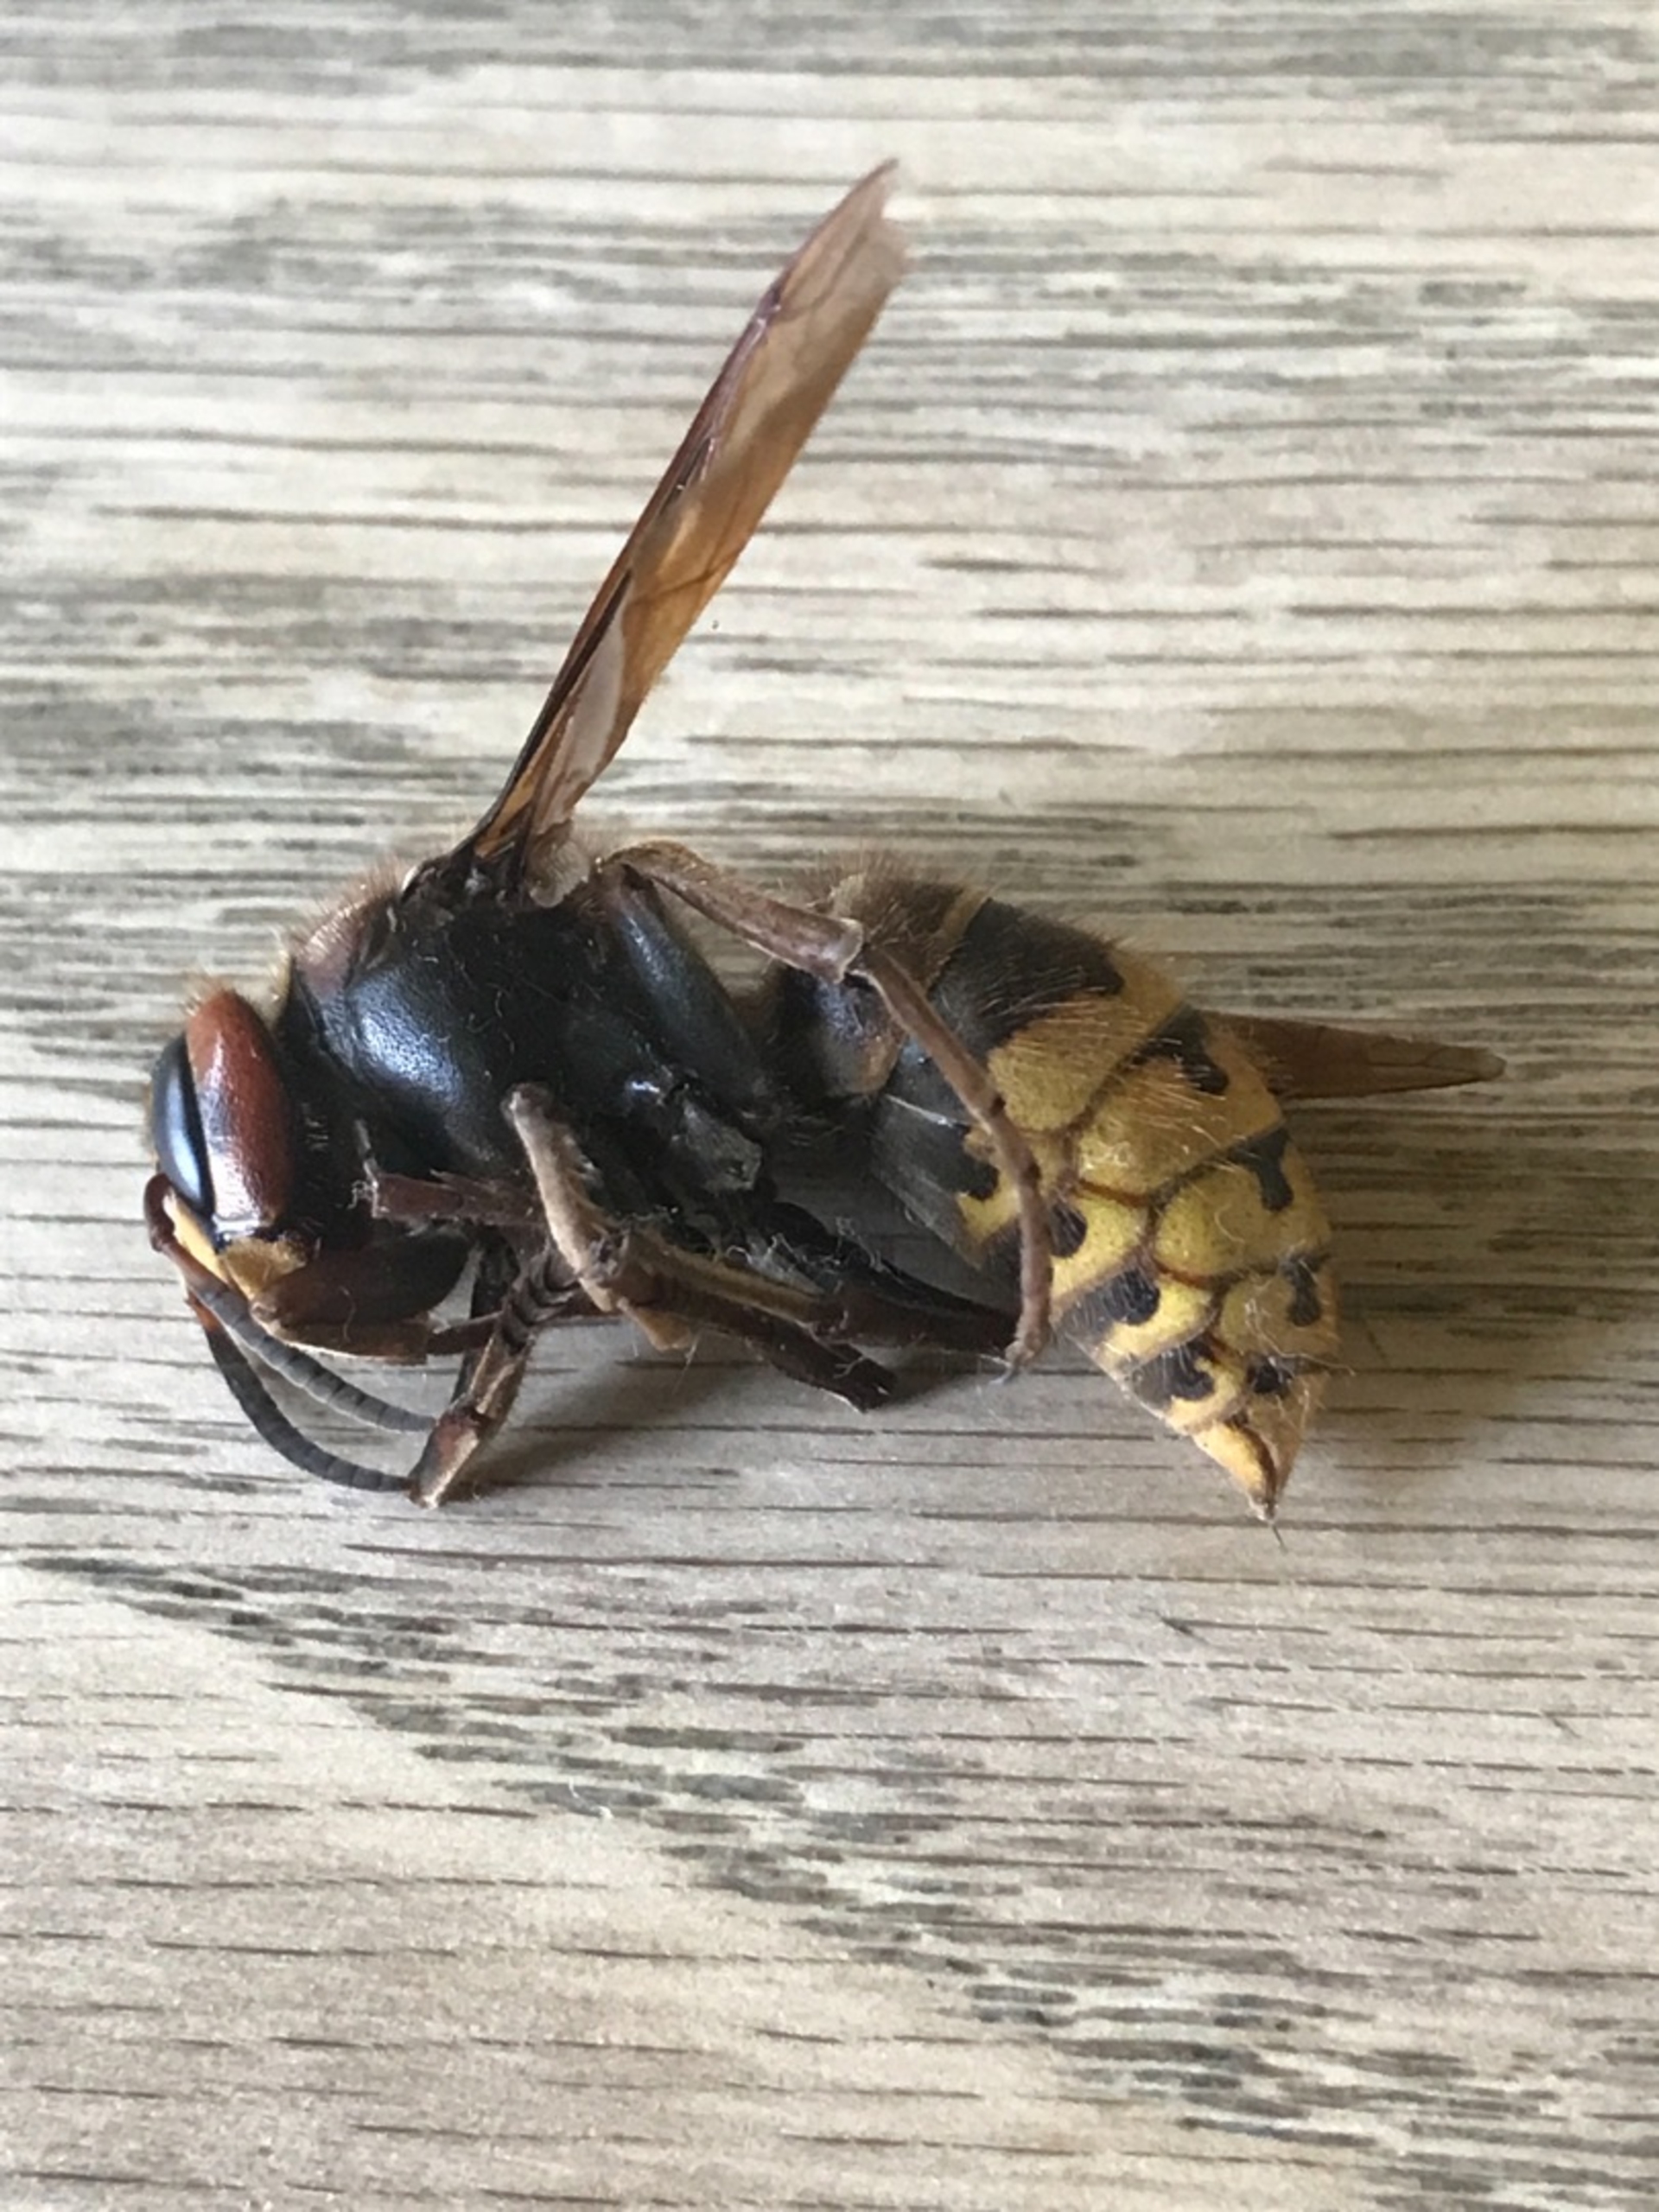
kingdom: Animalia
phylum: Arthropoda
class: Insecta
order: Hymenoptera
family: Vespidae
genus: Vespa
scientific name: Vespa crabro
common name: Stor gedehams
